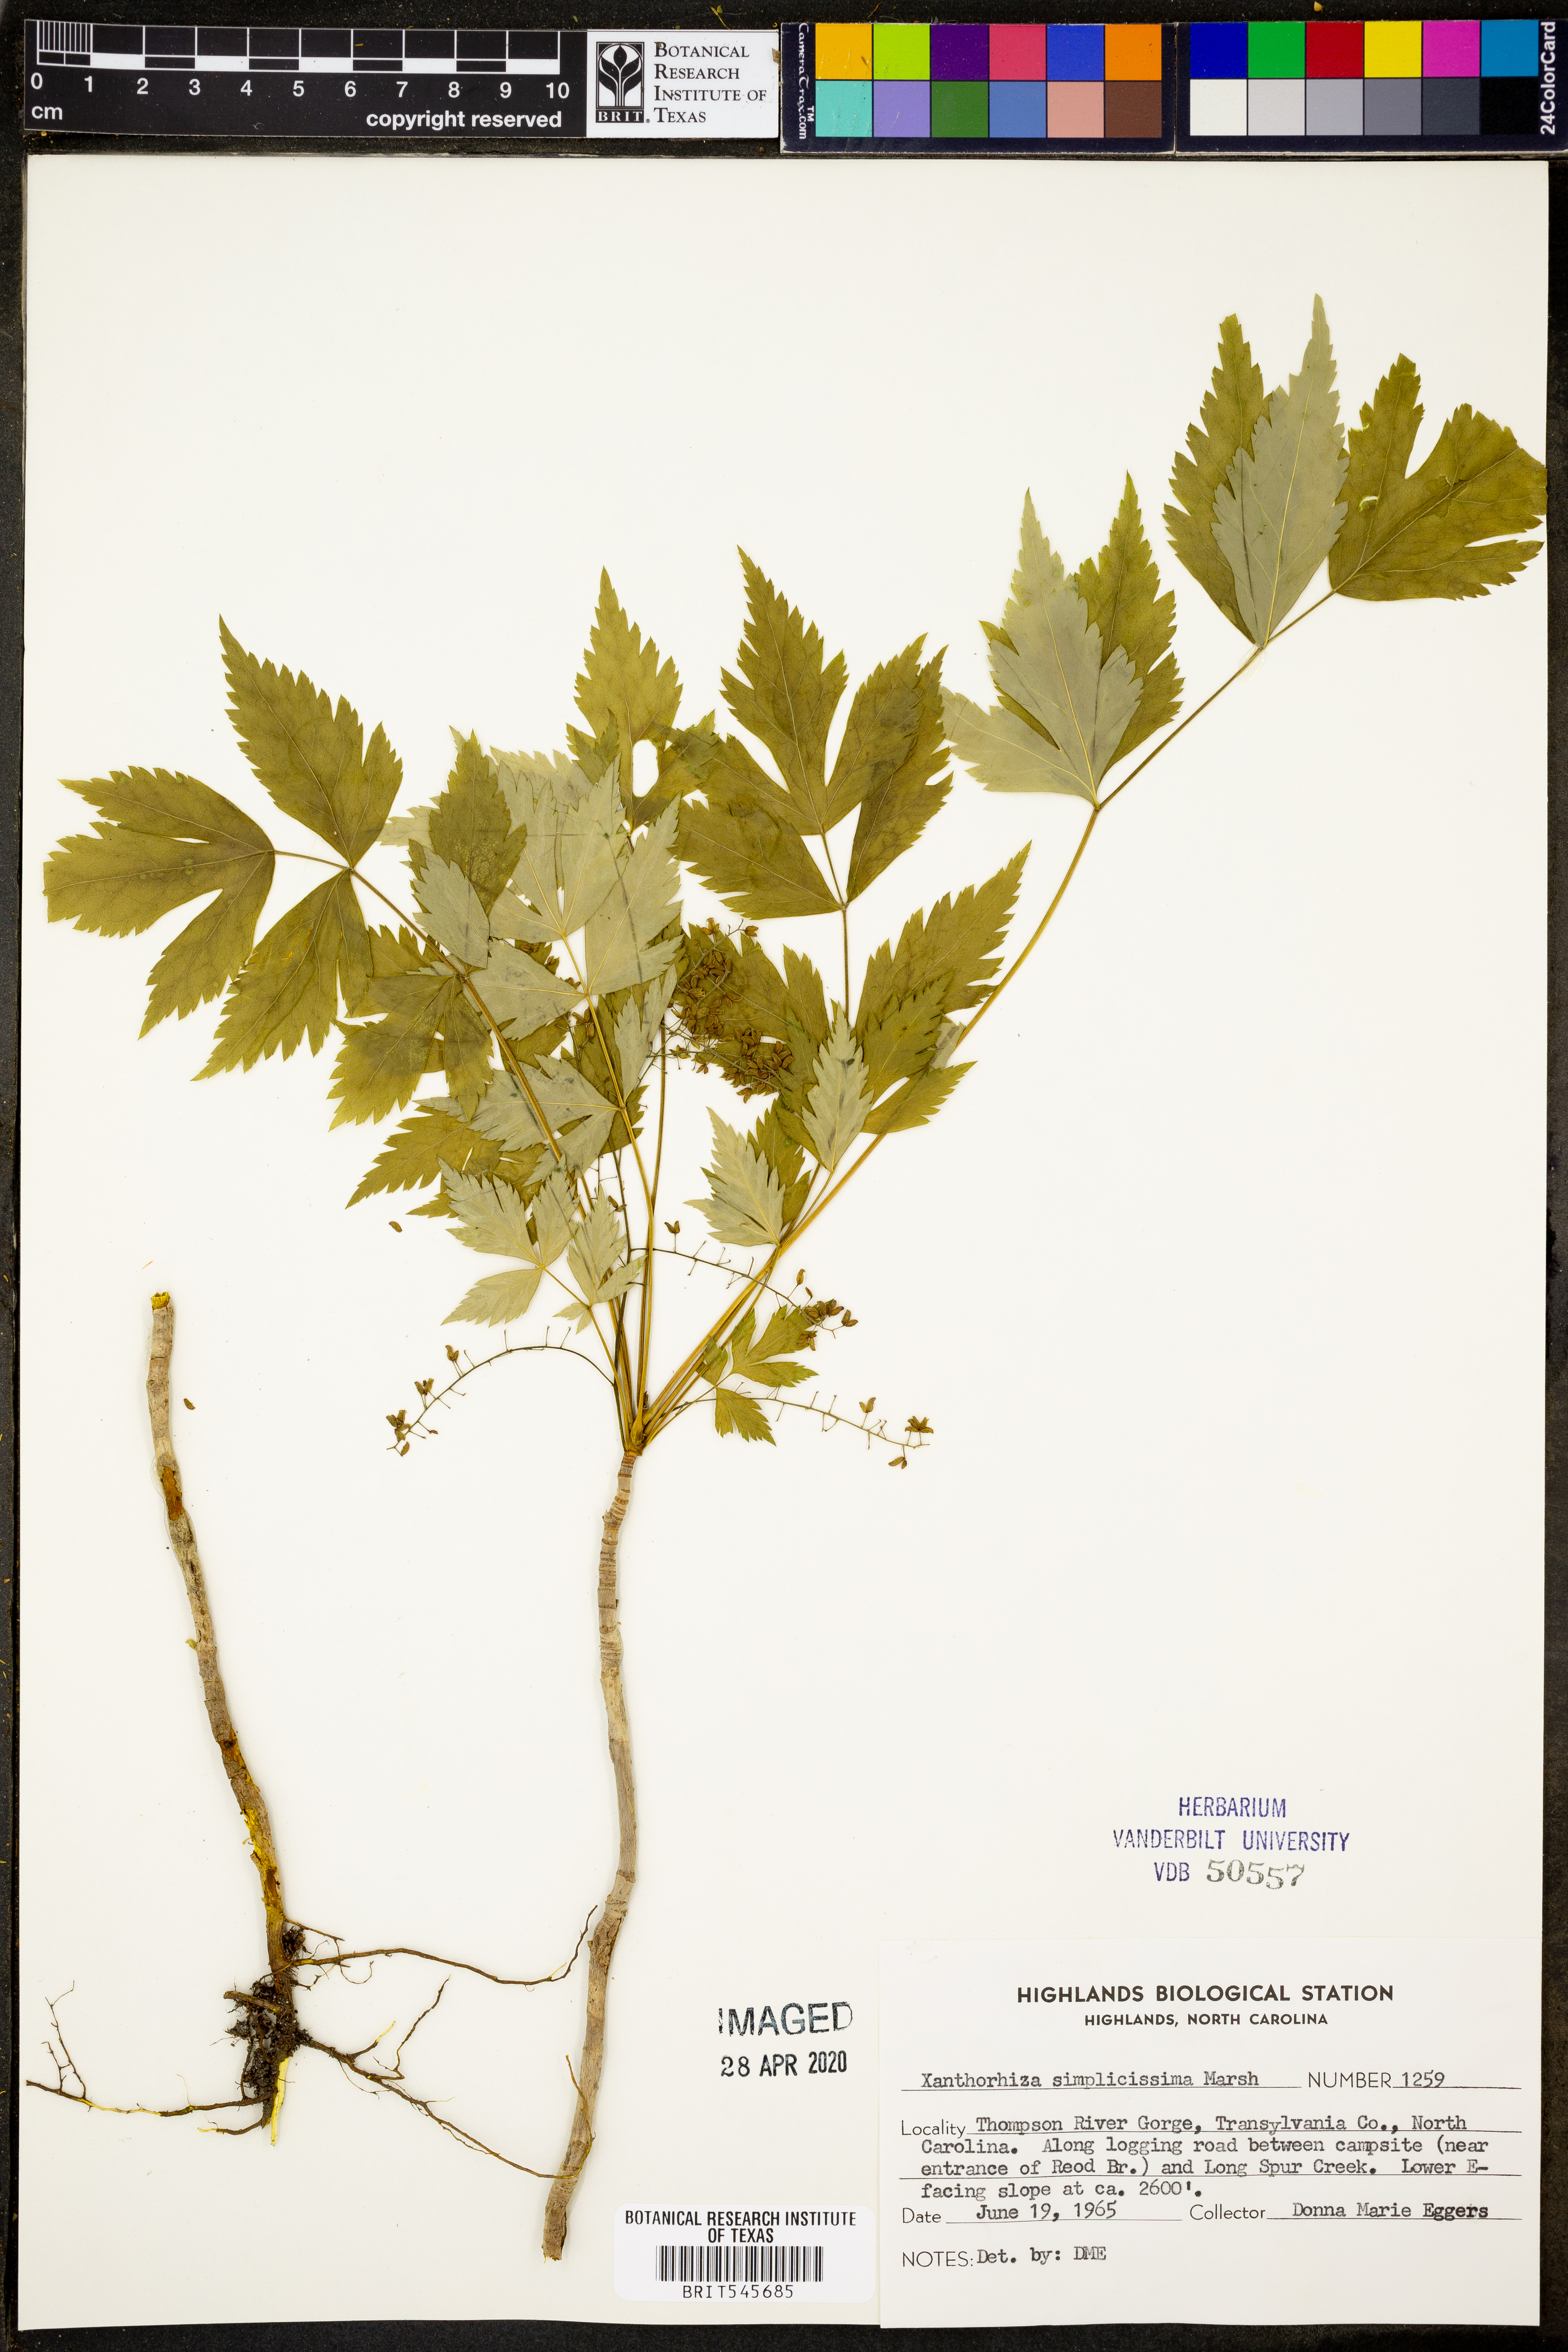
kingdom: Plantae
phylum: Tracheophyta
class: Magnoliopsida
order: Ranunculales
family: Ranunculaceae
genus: Xanthorhiza
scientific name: Xanthorhiza simplicissima
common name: Yellowroot
